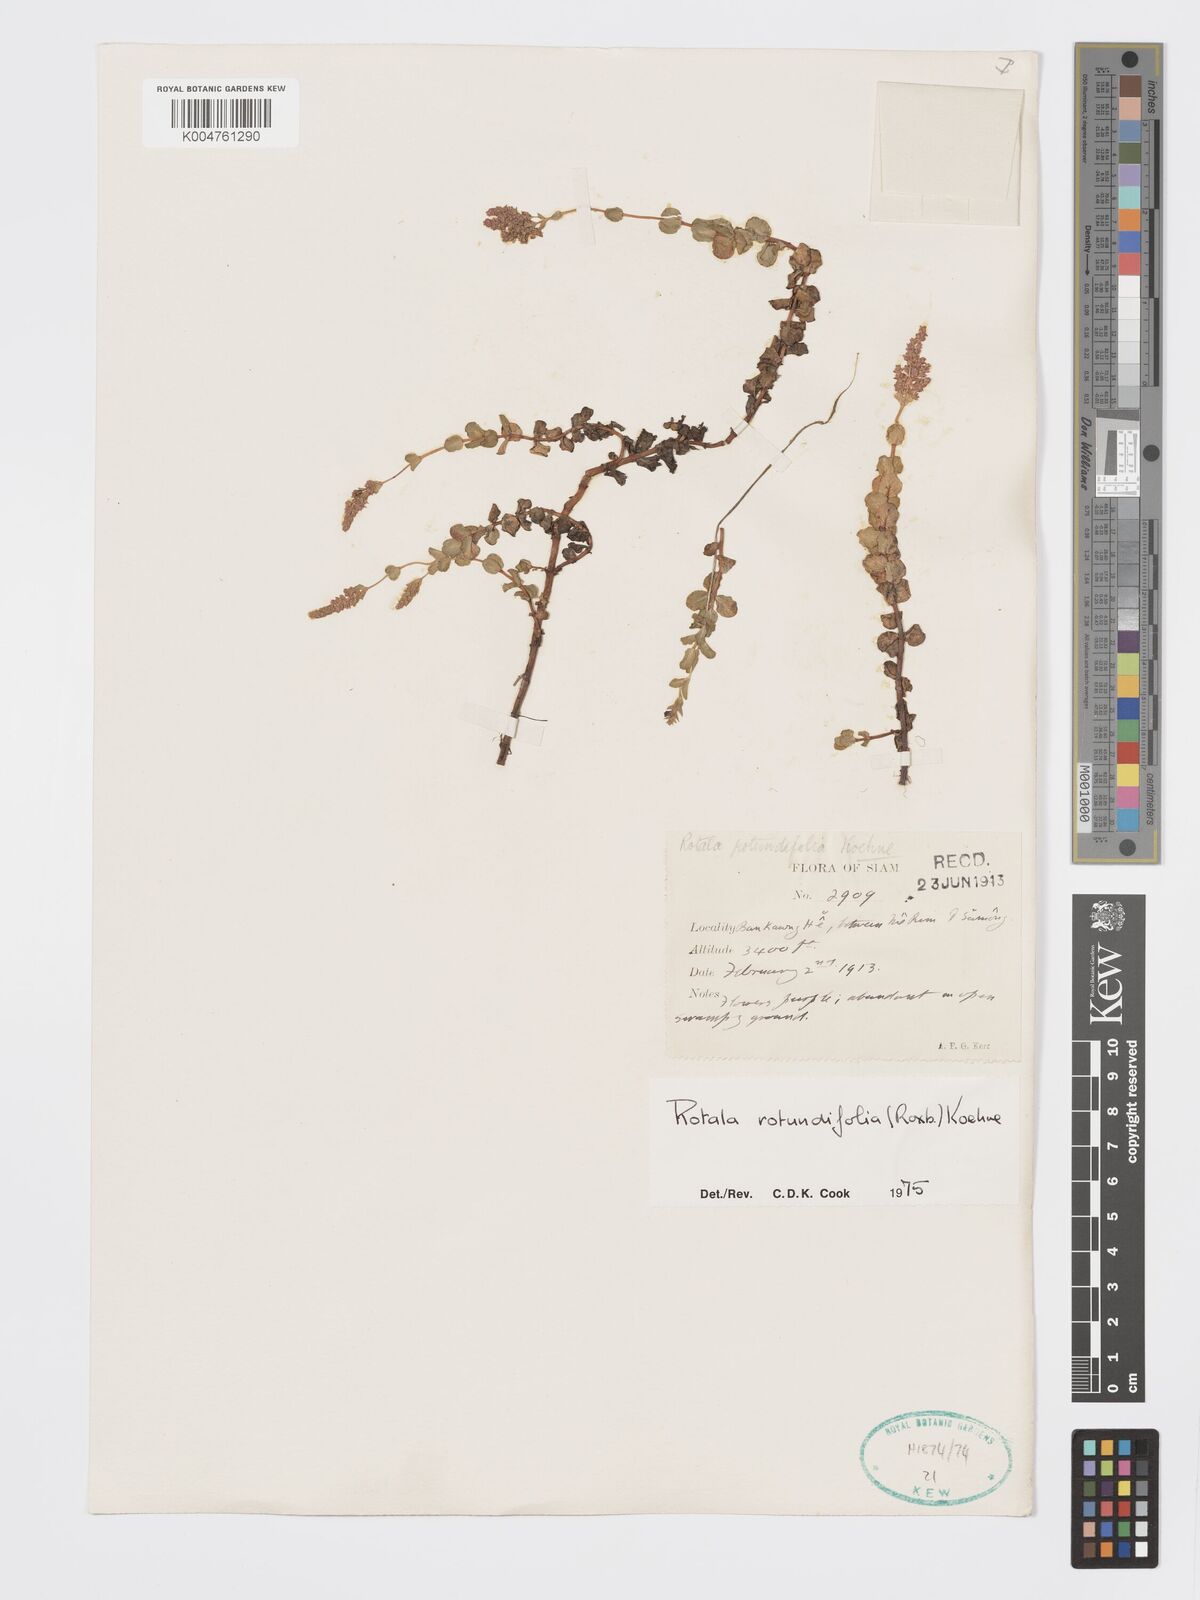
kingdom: Plantae
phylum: Tracheophyta
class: Magnoliopsida
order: Myrtales
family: Lythraceae
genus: Rotala
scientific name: Rotala rotundifolia
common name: Roundleaf toothcup
